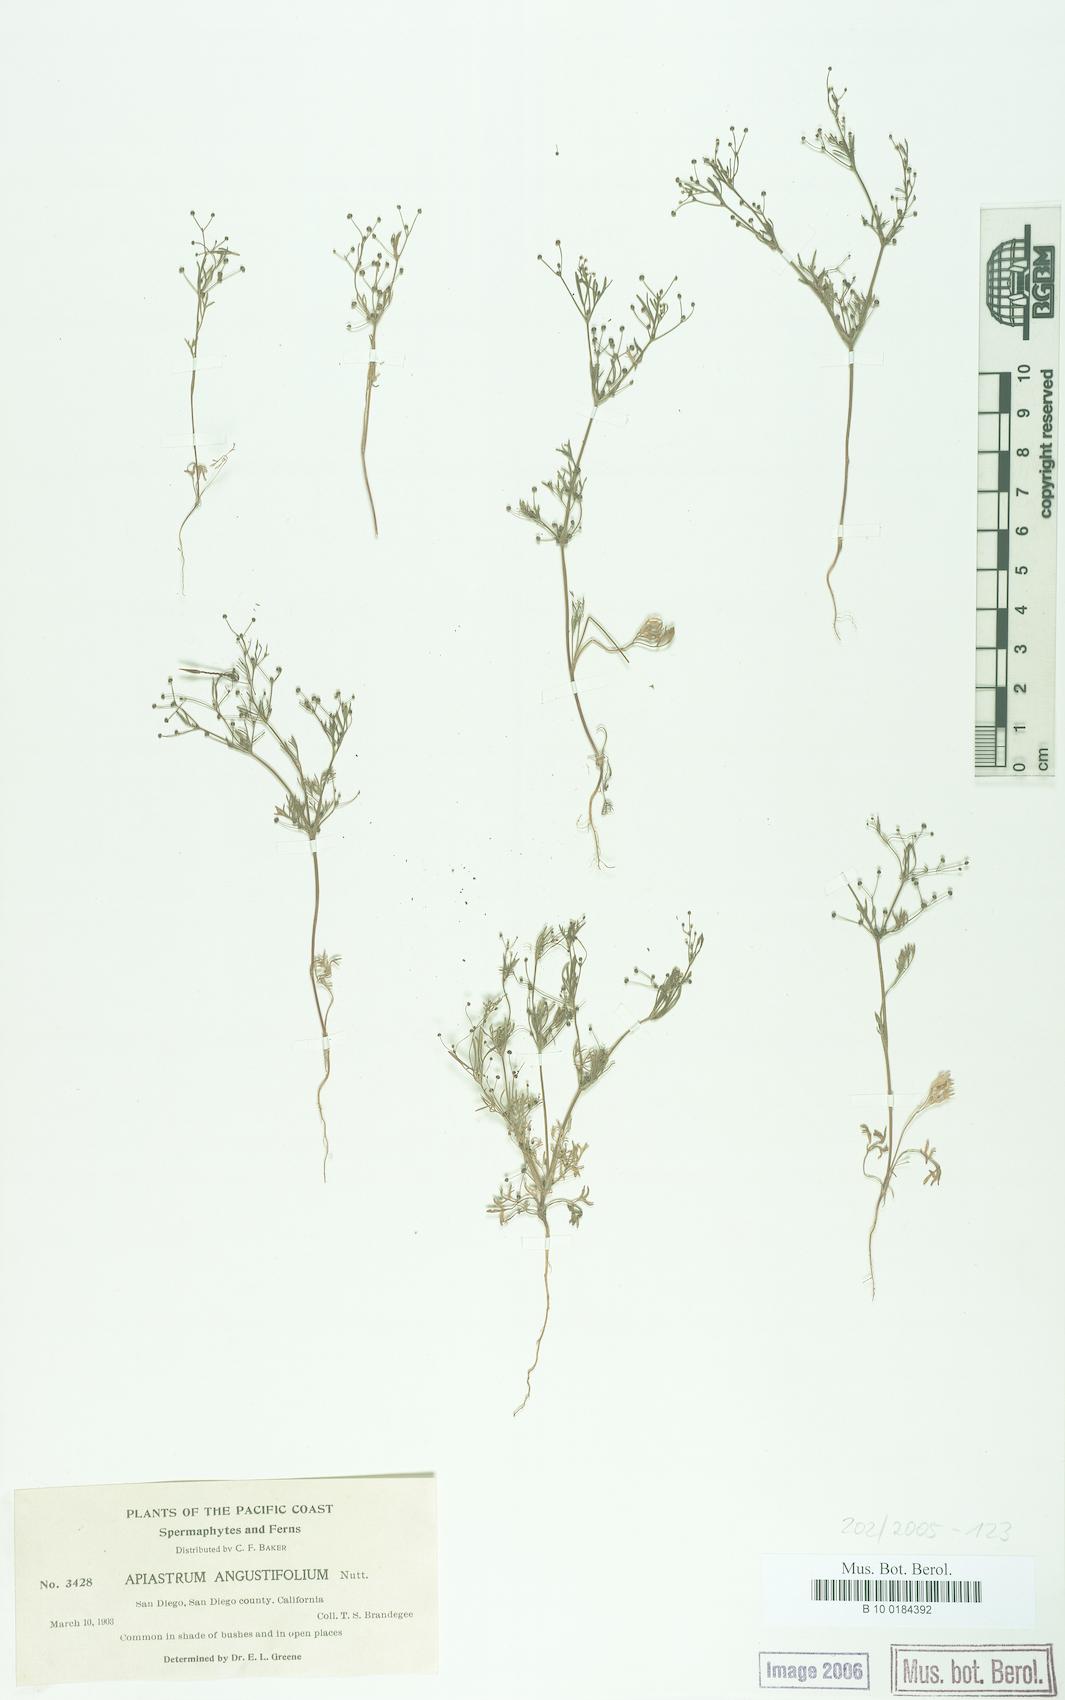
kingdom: Plantae
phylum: Tracheophyta
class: Magnoliopsida
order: Apiales
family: Apiaceae
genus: Apiastrum
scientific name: Apiastrum angustifolium
